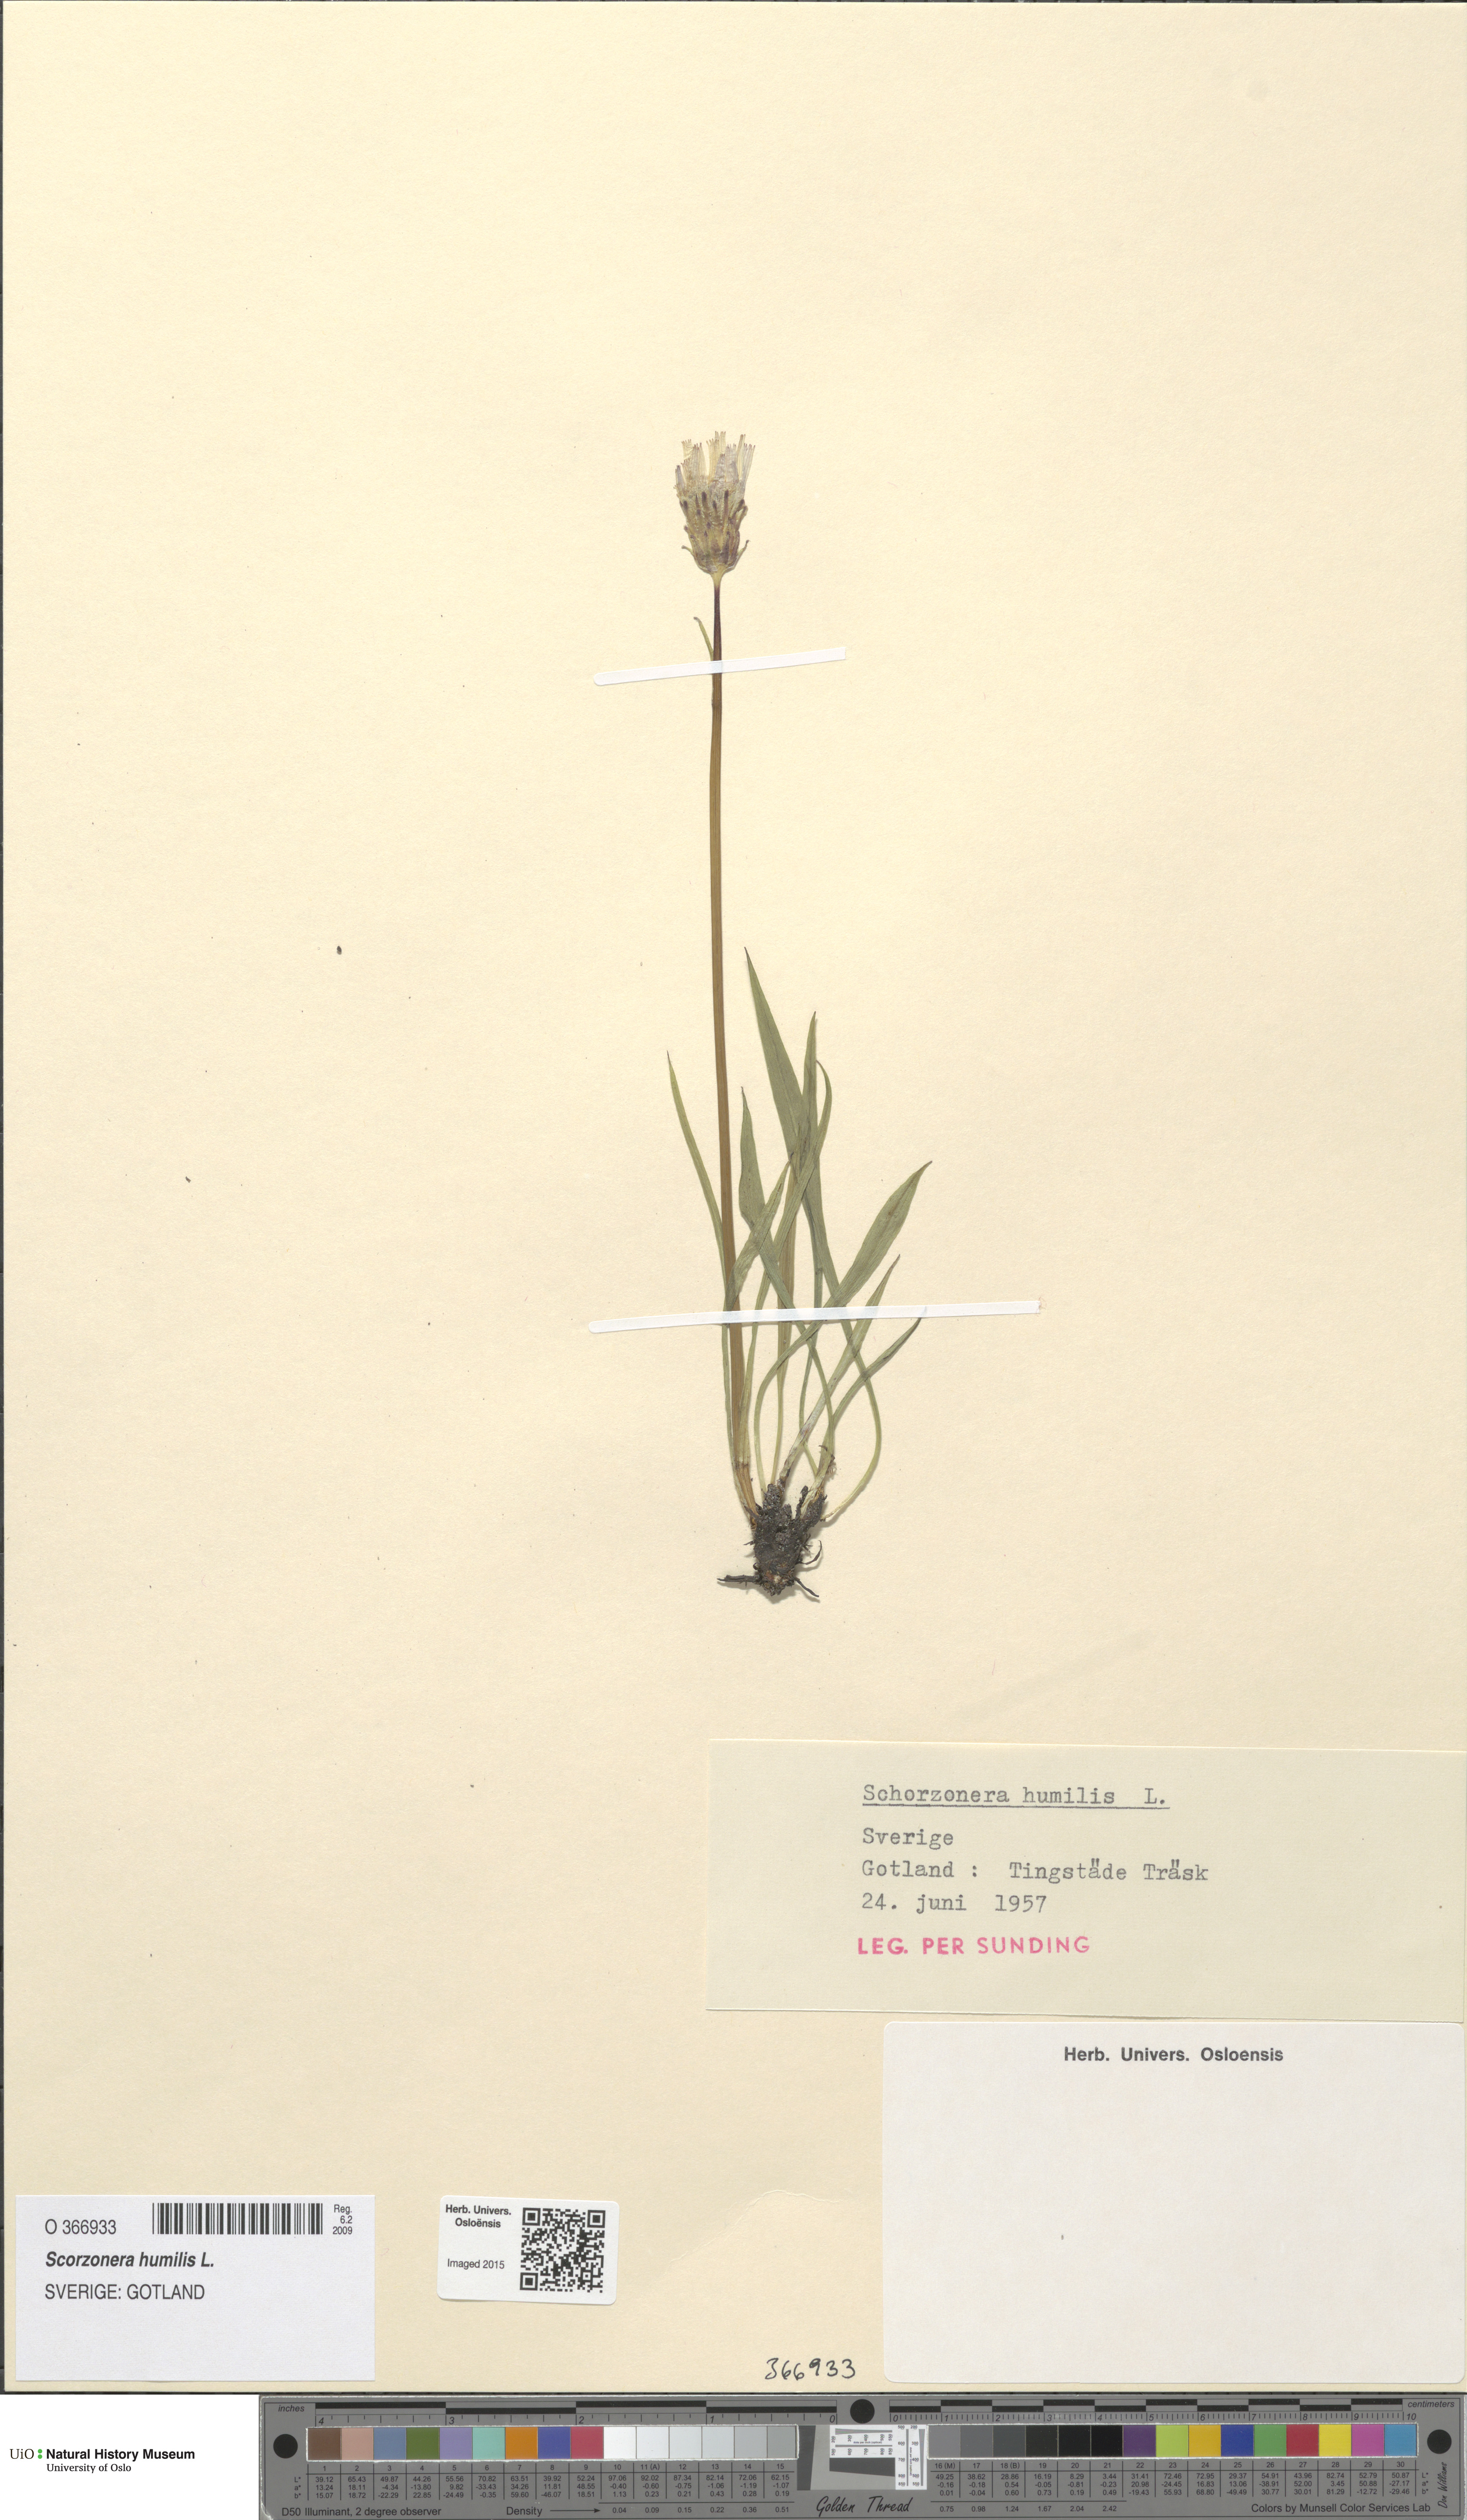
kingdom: Plantae
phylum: Tracheophyta
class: Magnoliopsida
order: Asterales
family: Asteraceae
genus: Scorzonera
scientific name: Scorzonera humilis
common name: Viper's-grass
